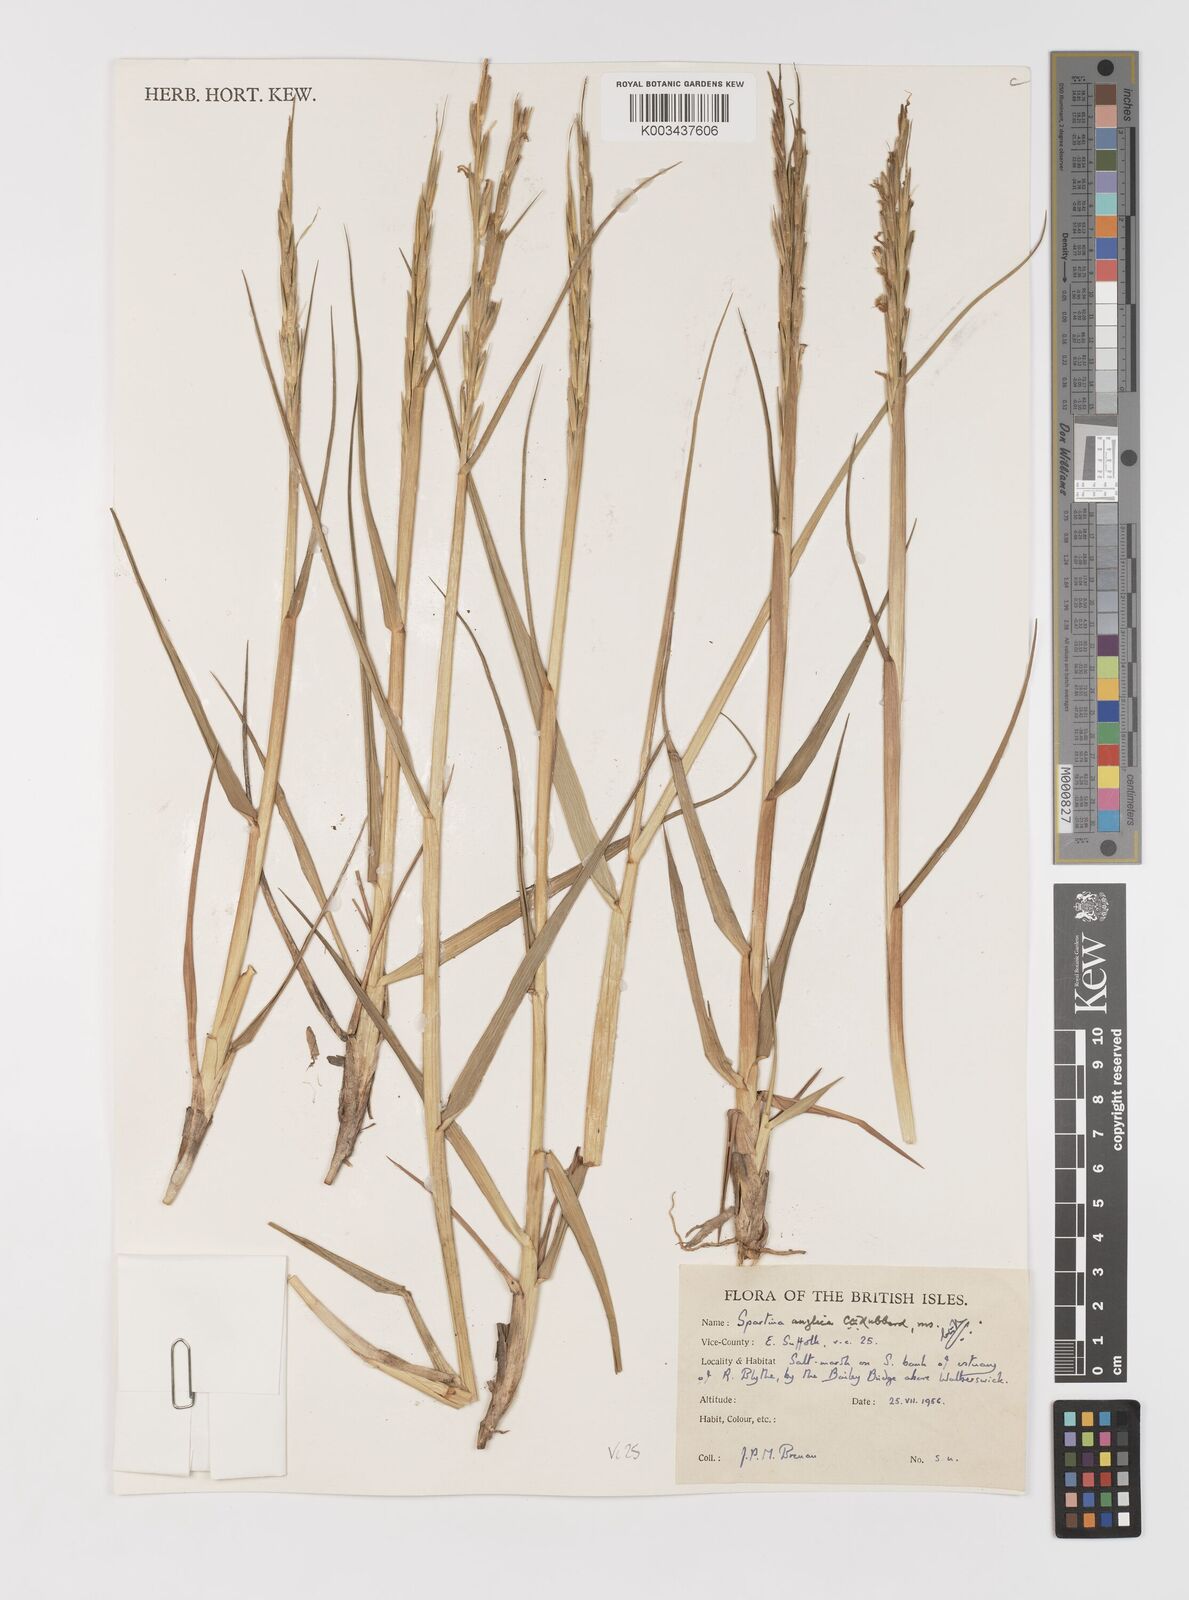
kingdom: Plantae
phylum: Tracheophyta
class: Liliopsida
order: Poales
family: Poaceae
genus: Sporobolus
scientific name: Sporobolus anglicus
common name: English cordgrass
